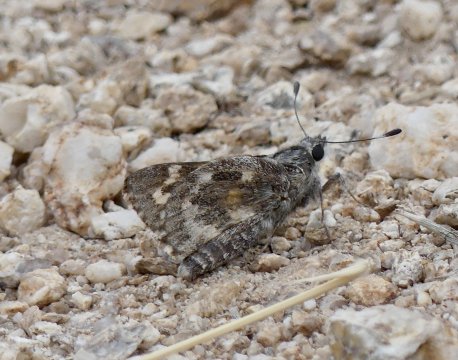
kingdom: Animalia
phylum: Arthropoda
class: Insecta
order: Lepidoptera
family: Hesperiidae
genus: Agathymus
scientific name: Agathymus polingi
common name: Poling's Giant-Skipper
